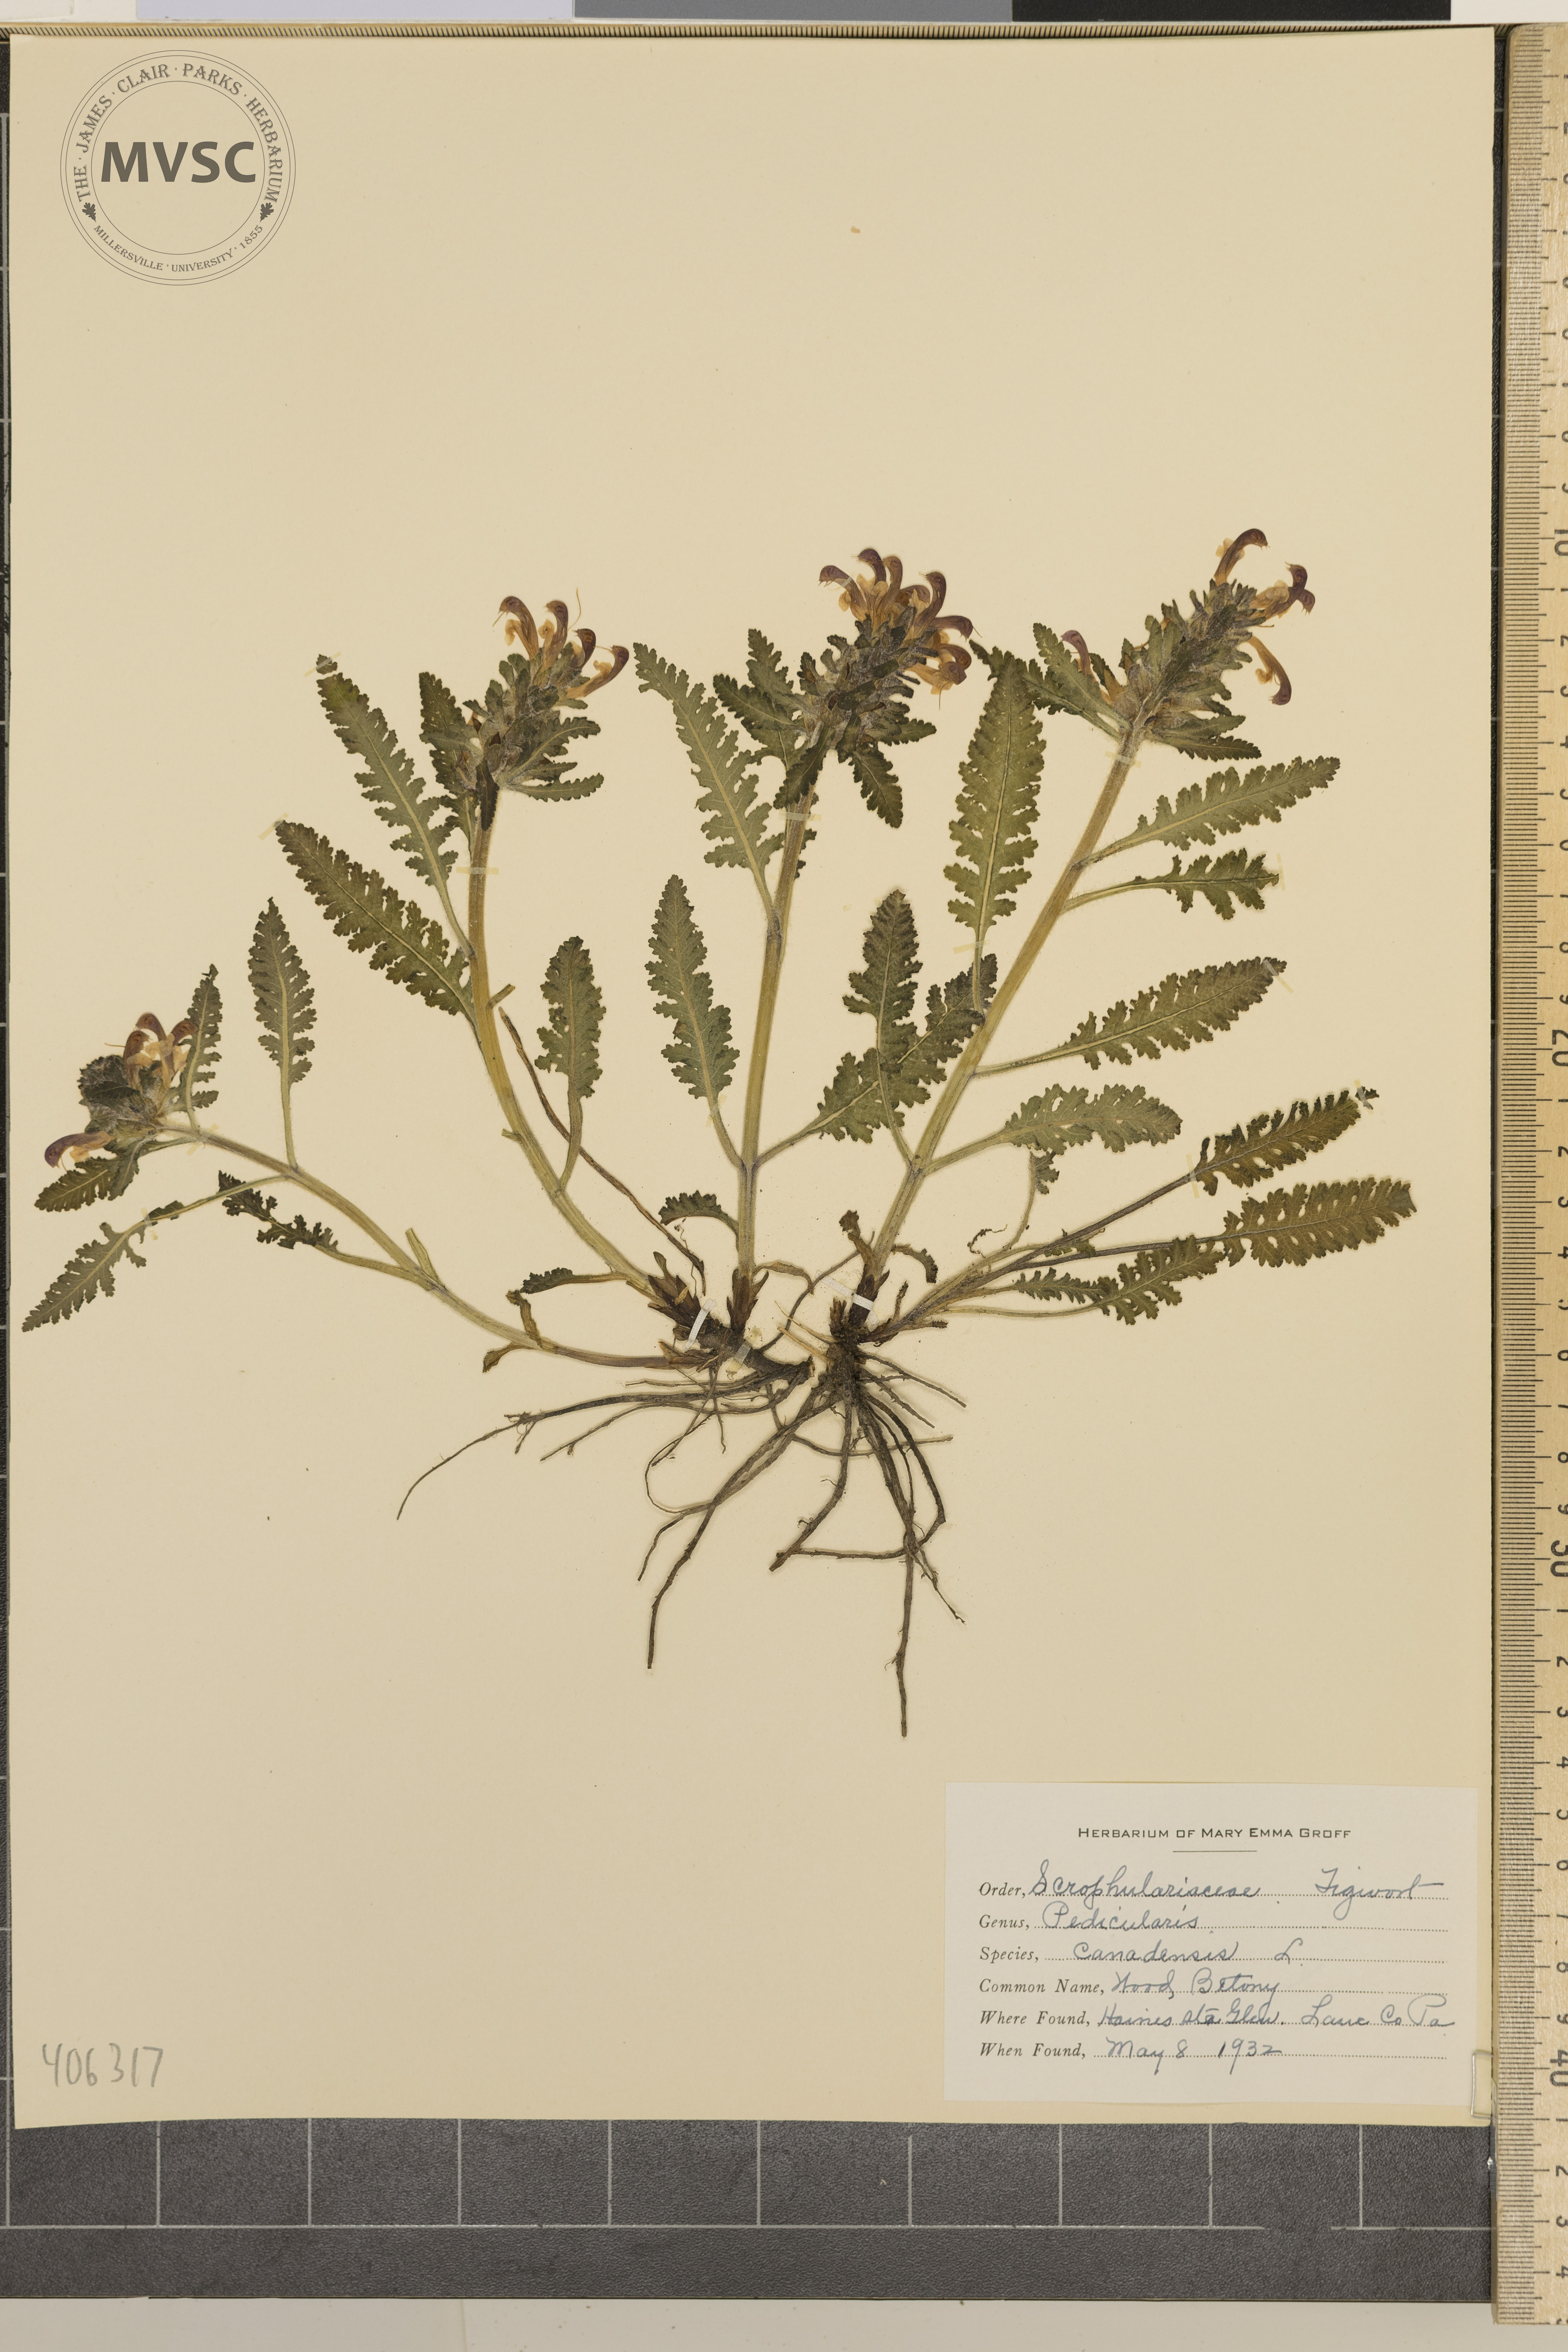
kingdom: Plantae
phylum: Tracheophyta
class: Magnoliopsida
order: Lamiales
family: Orobanchaceae
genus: Pedicularis
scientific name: Pedicularis canadensis
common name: Wood Betony
